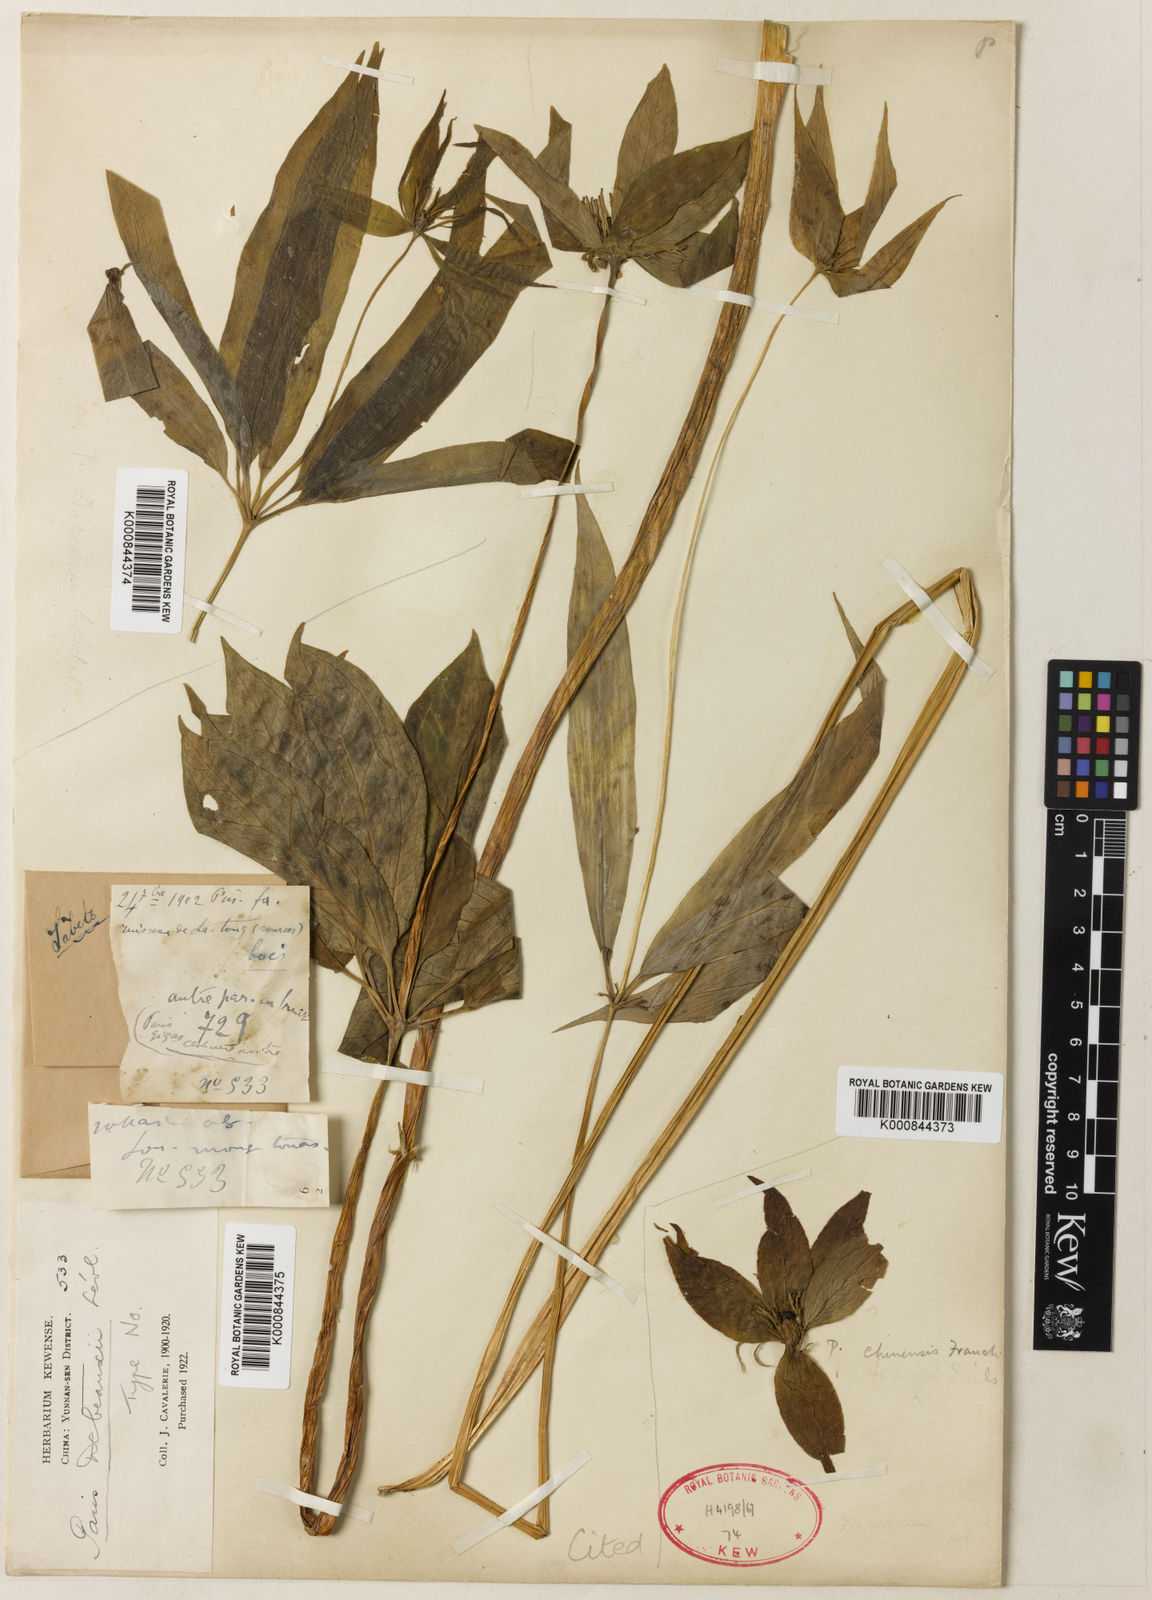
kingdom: Plantae
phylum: Tracheophyta
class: Liliopsida
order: Liliales
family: Melanthiaceae
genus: Paris
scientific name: Paris polyphylla
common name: Love apple
